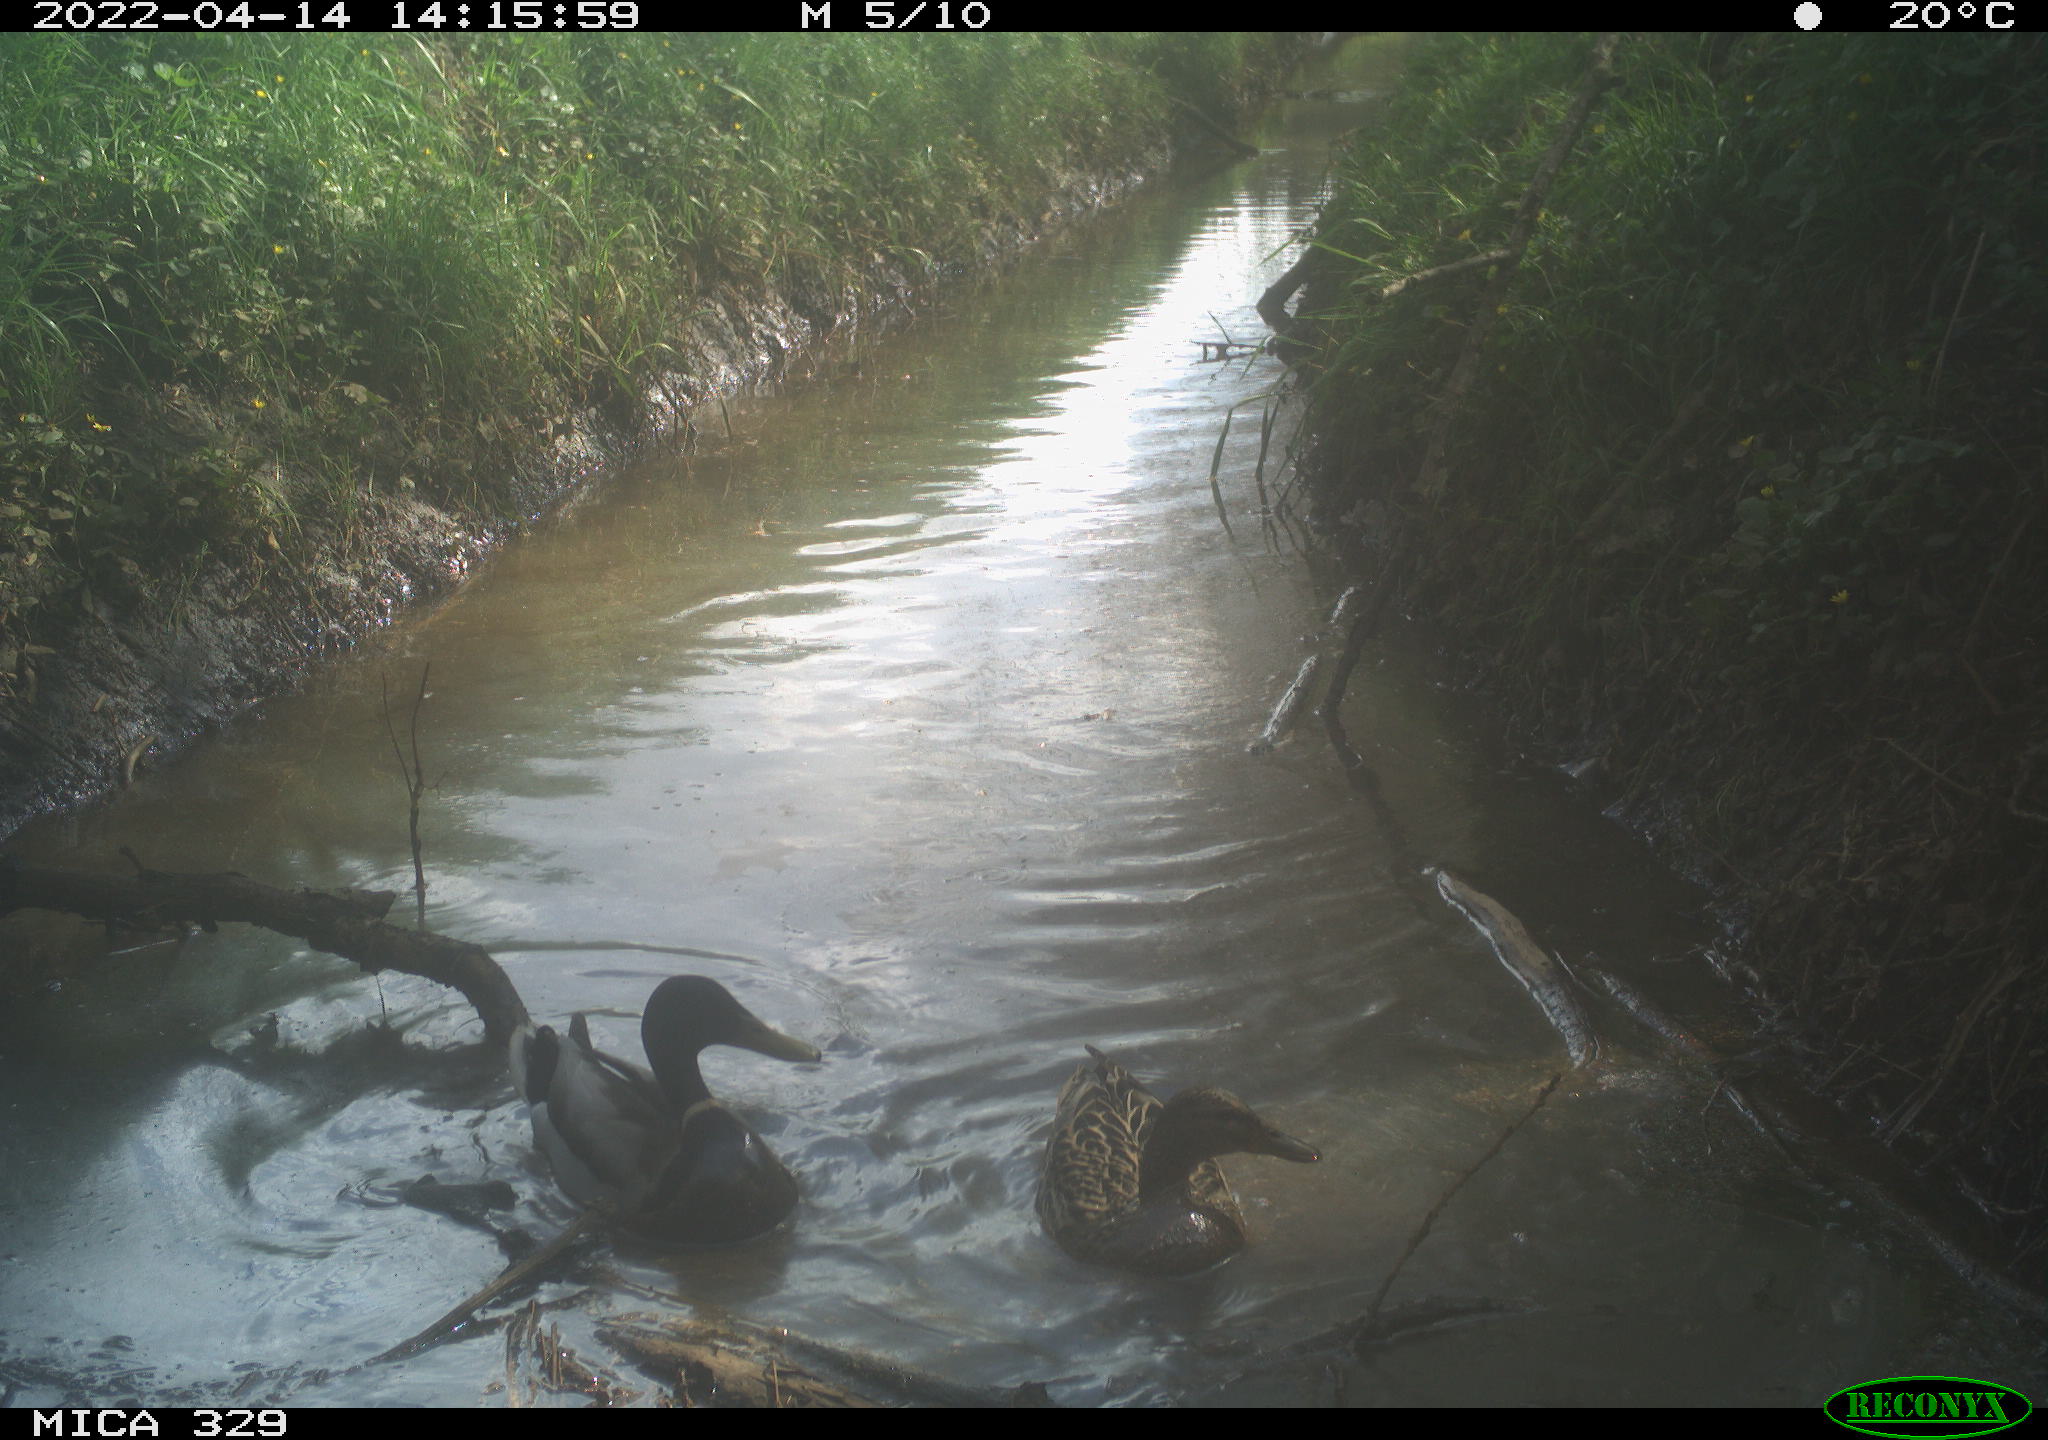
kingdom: Animalia
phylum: Chordata
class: Aves
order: Anseriformes
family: Anatidae
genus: Anas
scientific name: Anas platyrhynchos
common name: Mallard
